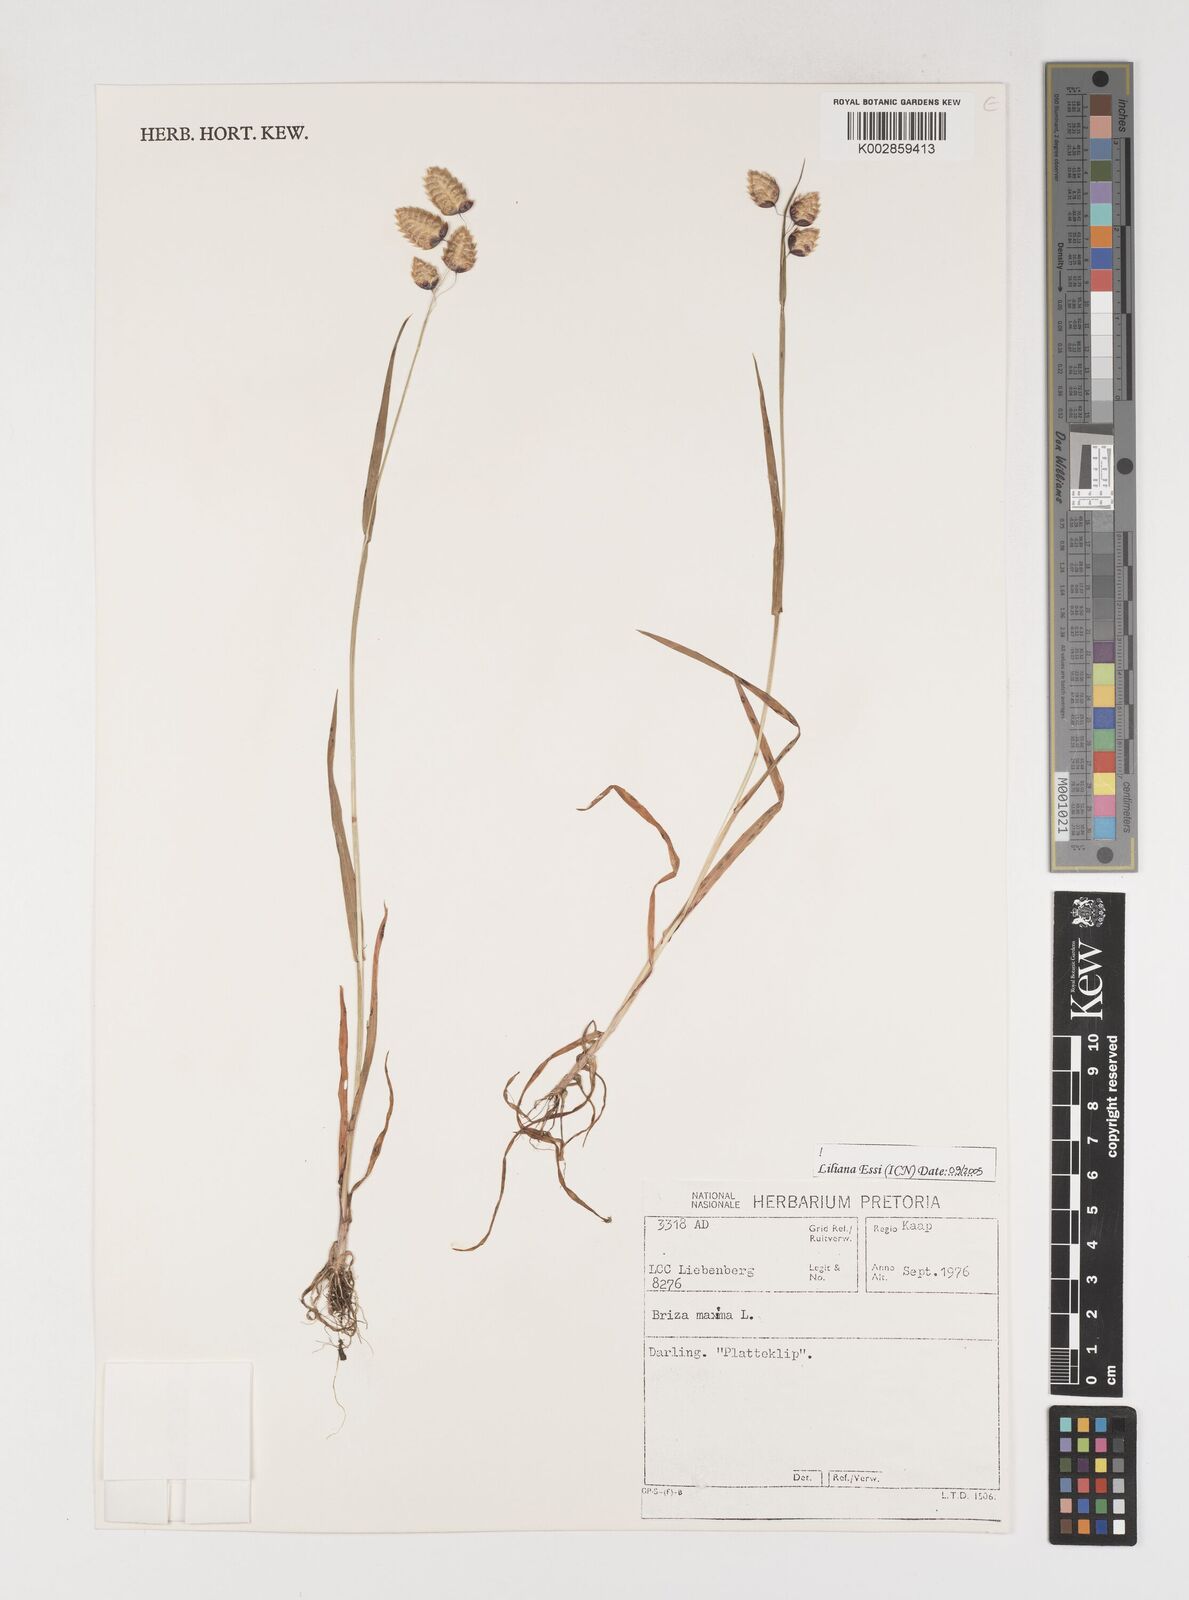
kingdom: Plantae
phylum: Tracheophyta
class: Liliopsida
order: Poales
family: Poaceae
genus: Briza
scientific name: Briza maxima
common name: Big quakinggrass
